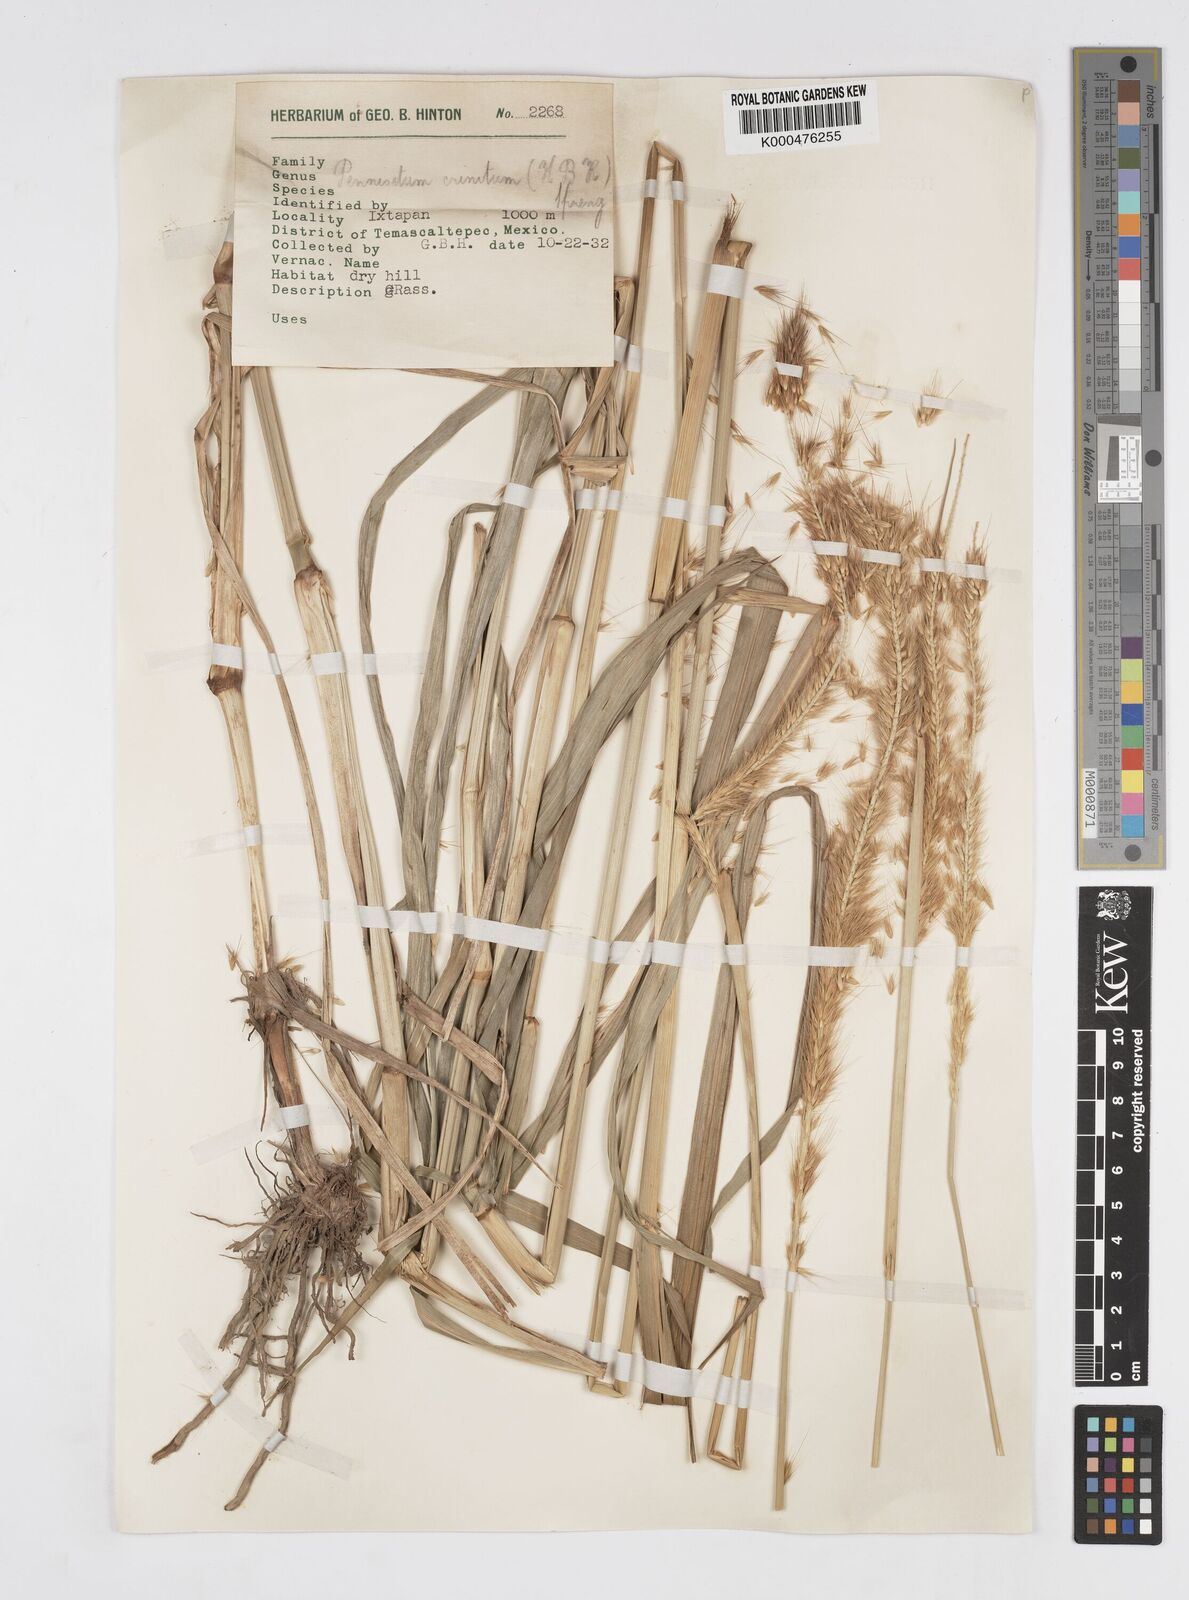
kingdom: Plantae
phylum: Tracheophyta
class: Liliopsida
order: Poales
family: Poaceae
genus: Cenchrus
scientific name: Cenchrus michoacanus
